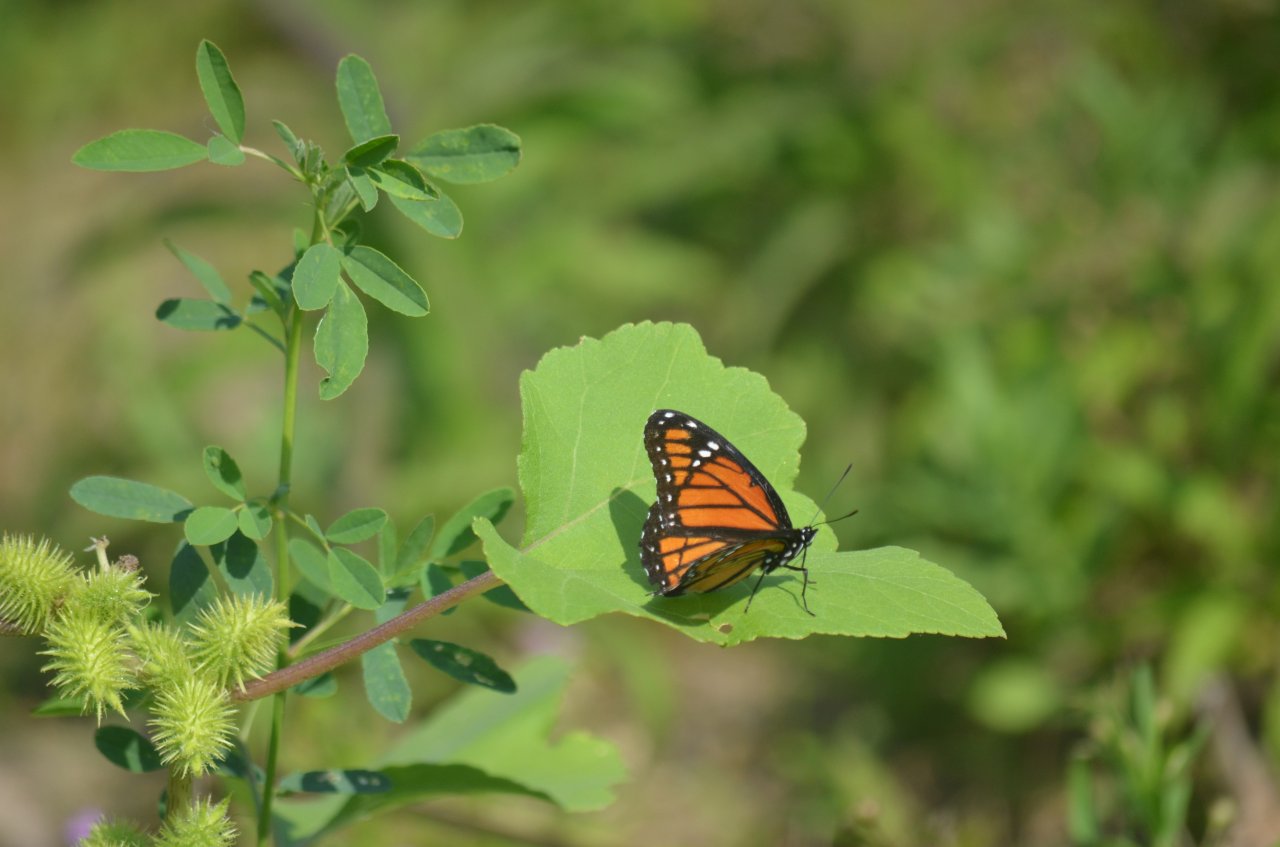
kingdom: Animalia
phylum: Arthropoda
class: Insecta
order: Lepidoptera
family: Nymphalidae
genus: Limenitis
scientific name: Limenitis archippus
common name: Viceroy
